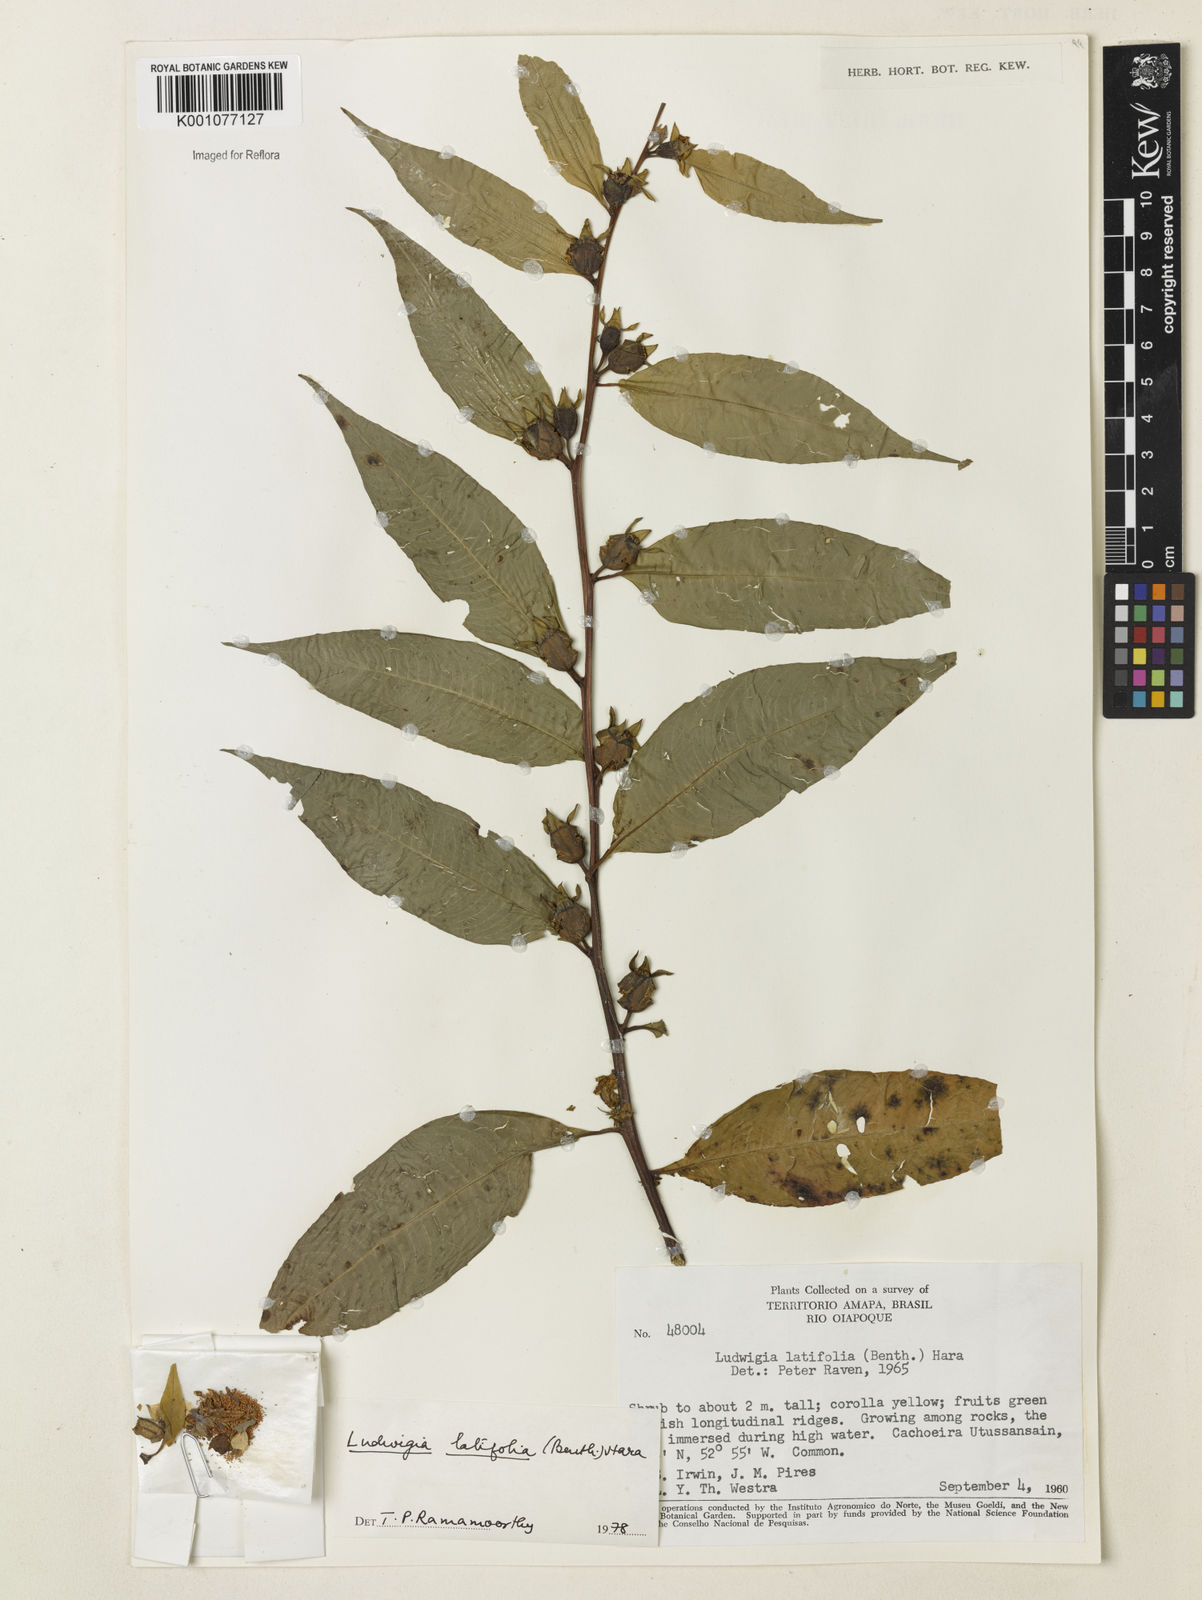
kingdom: Plantae
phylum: Tracheophyta
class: Magnoliopsida
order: Myrtales
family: Onagraceae
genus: Ludwigia
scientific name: Ludwigia latifolia
